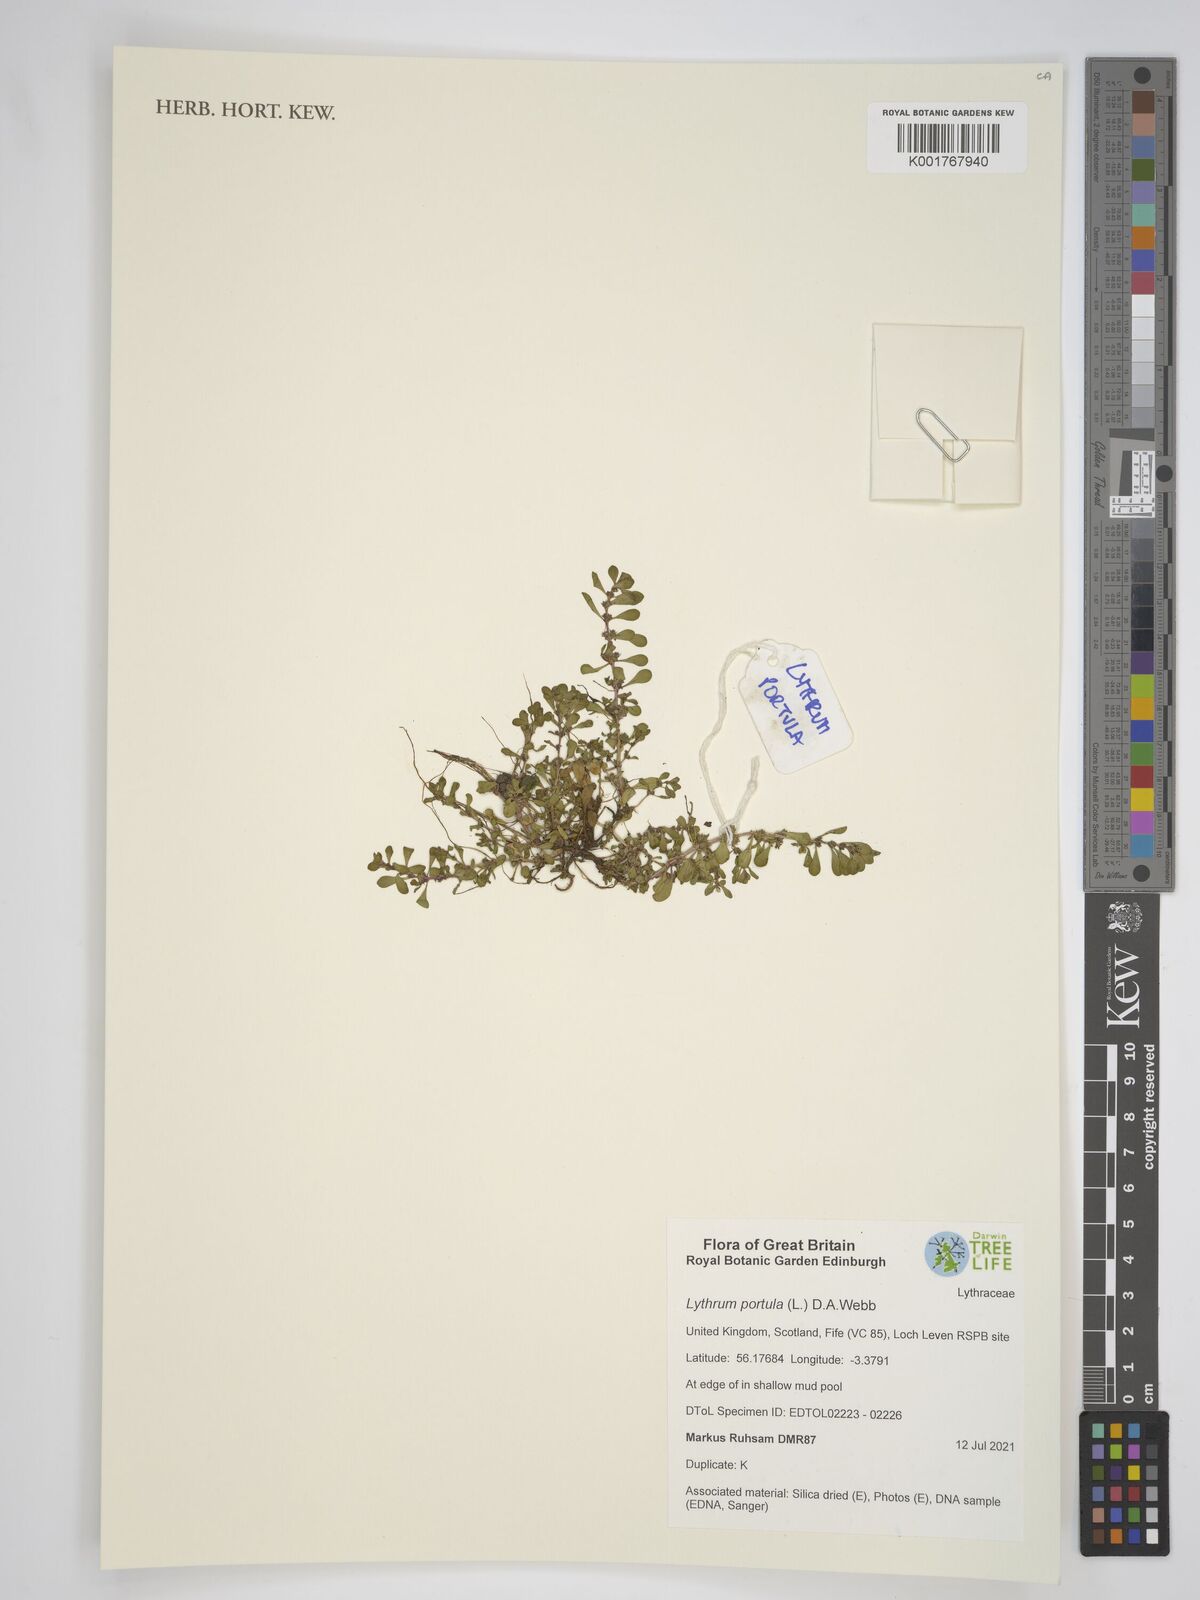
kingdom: Plantae
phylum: Tracheophyta
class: Magnoliopsida
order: Myrtales
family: Lythraceae
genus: Lythrum
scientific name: Lythrum portula
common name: Water purslane
